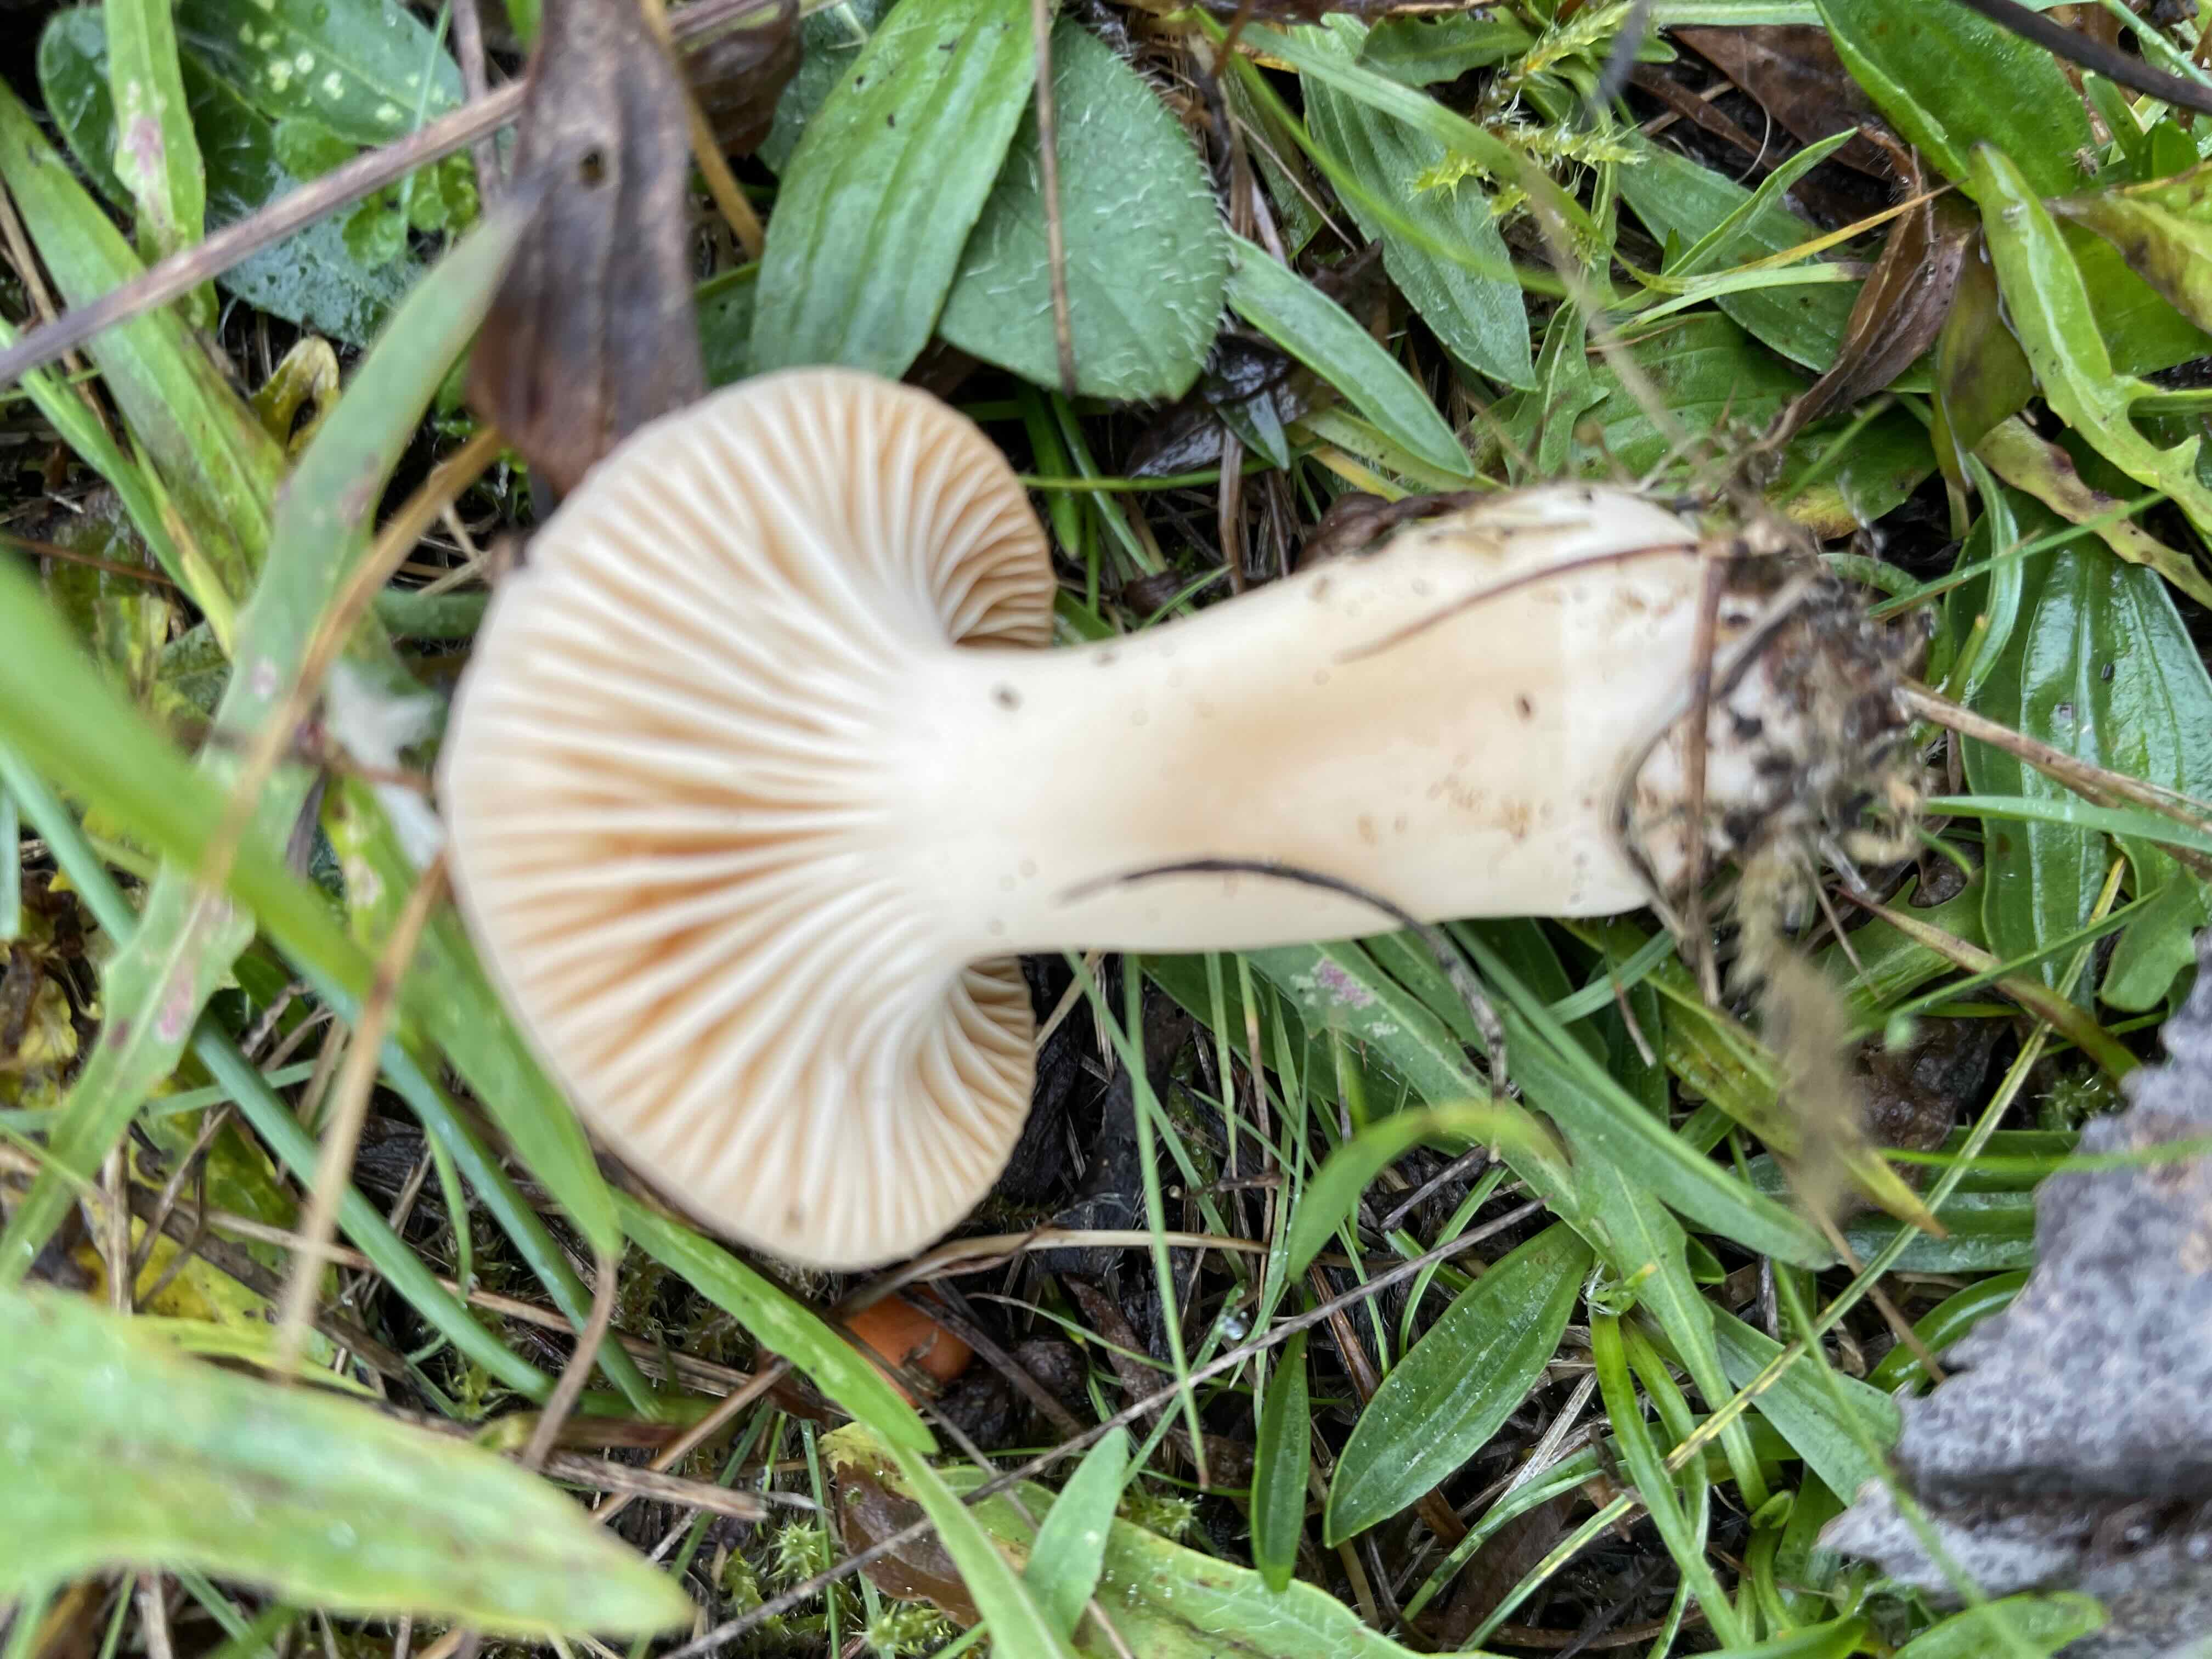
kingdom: Fungi
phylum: Basidiomycota
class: Agaricomycetes
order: Agaricales
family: Hygrophoraceae
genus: Cuphophyllus
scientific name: Cuphophyllus pratensis
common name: eng-vokshat
